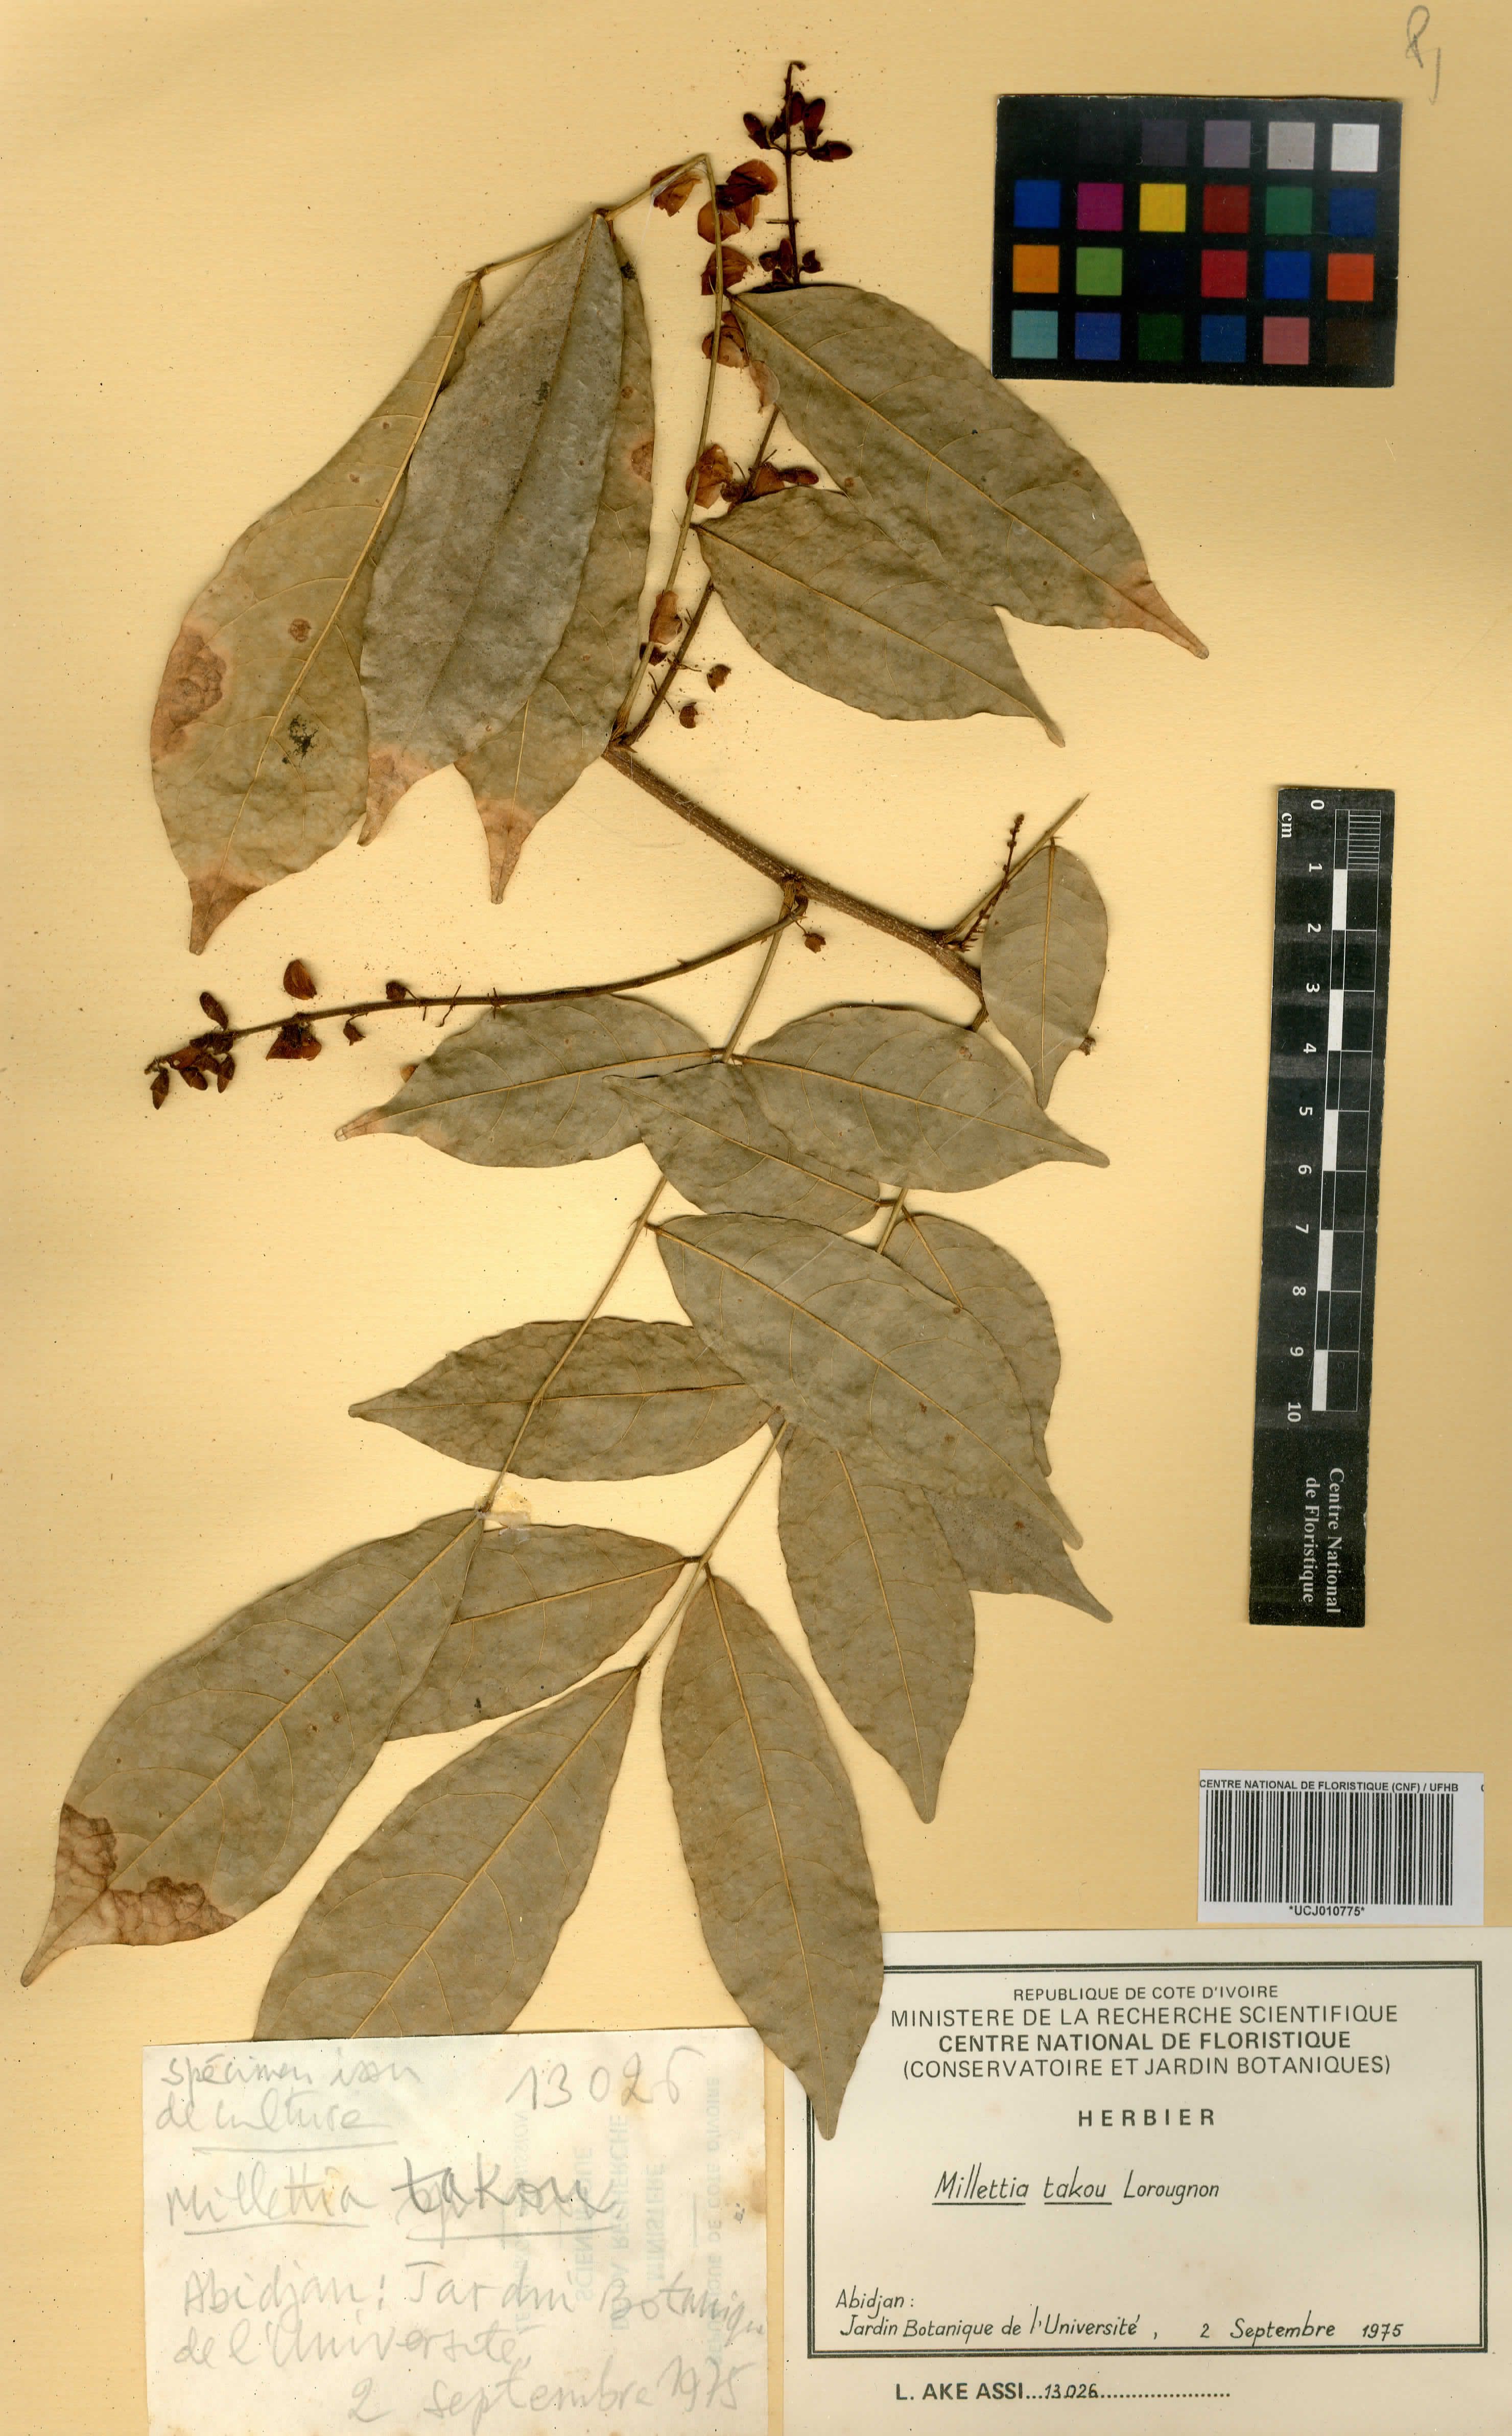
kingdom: Plantae
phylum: Tracheophyta
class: Magnoliopsida
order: Fabales
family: Fabaceae
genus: Millettia
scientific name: Millettia takou
